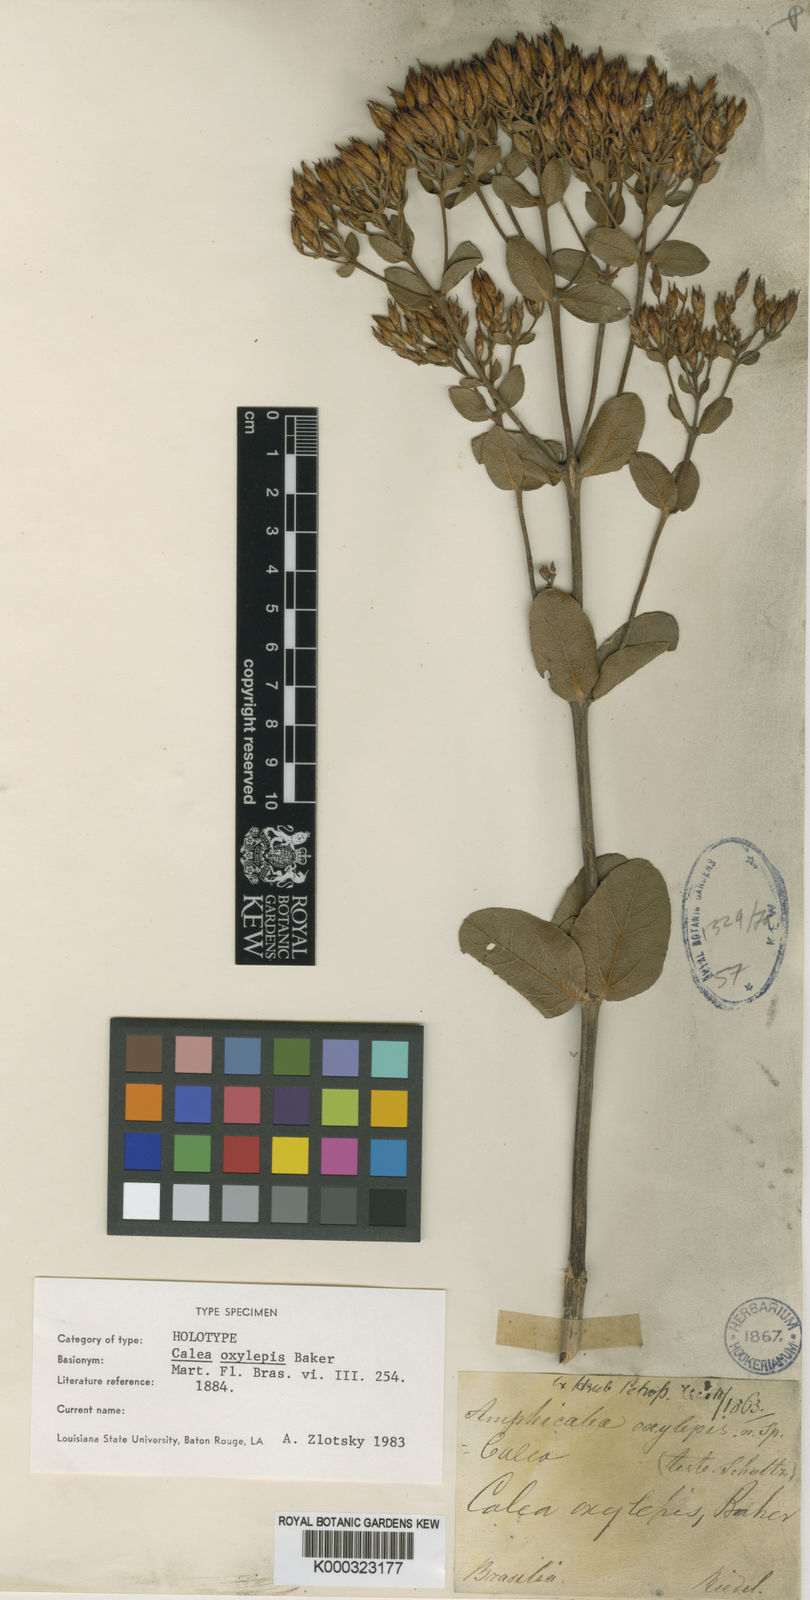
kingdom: Plantae
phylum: Tracheophyta
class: Magnoliopsida
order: Asterales
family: Asteraceae
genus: Calea
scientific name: Calea oxylepis
